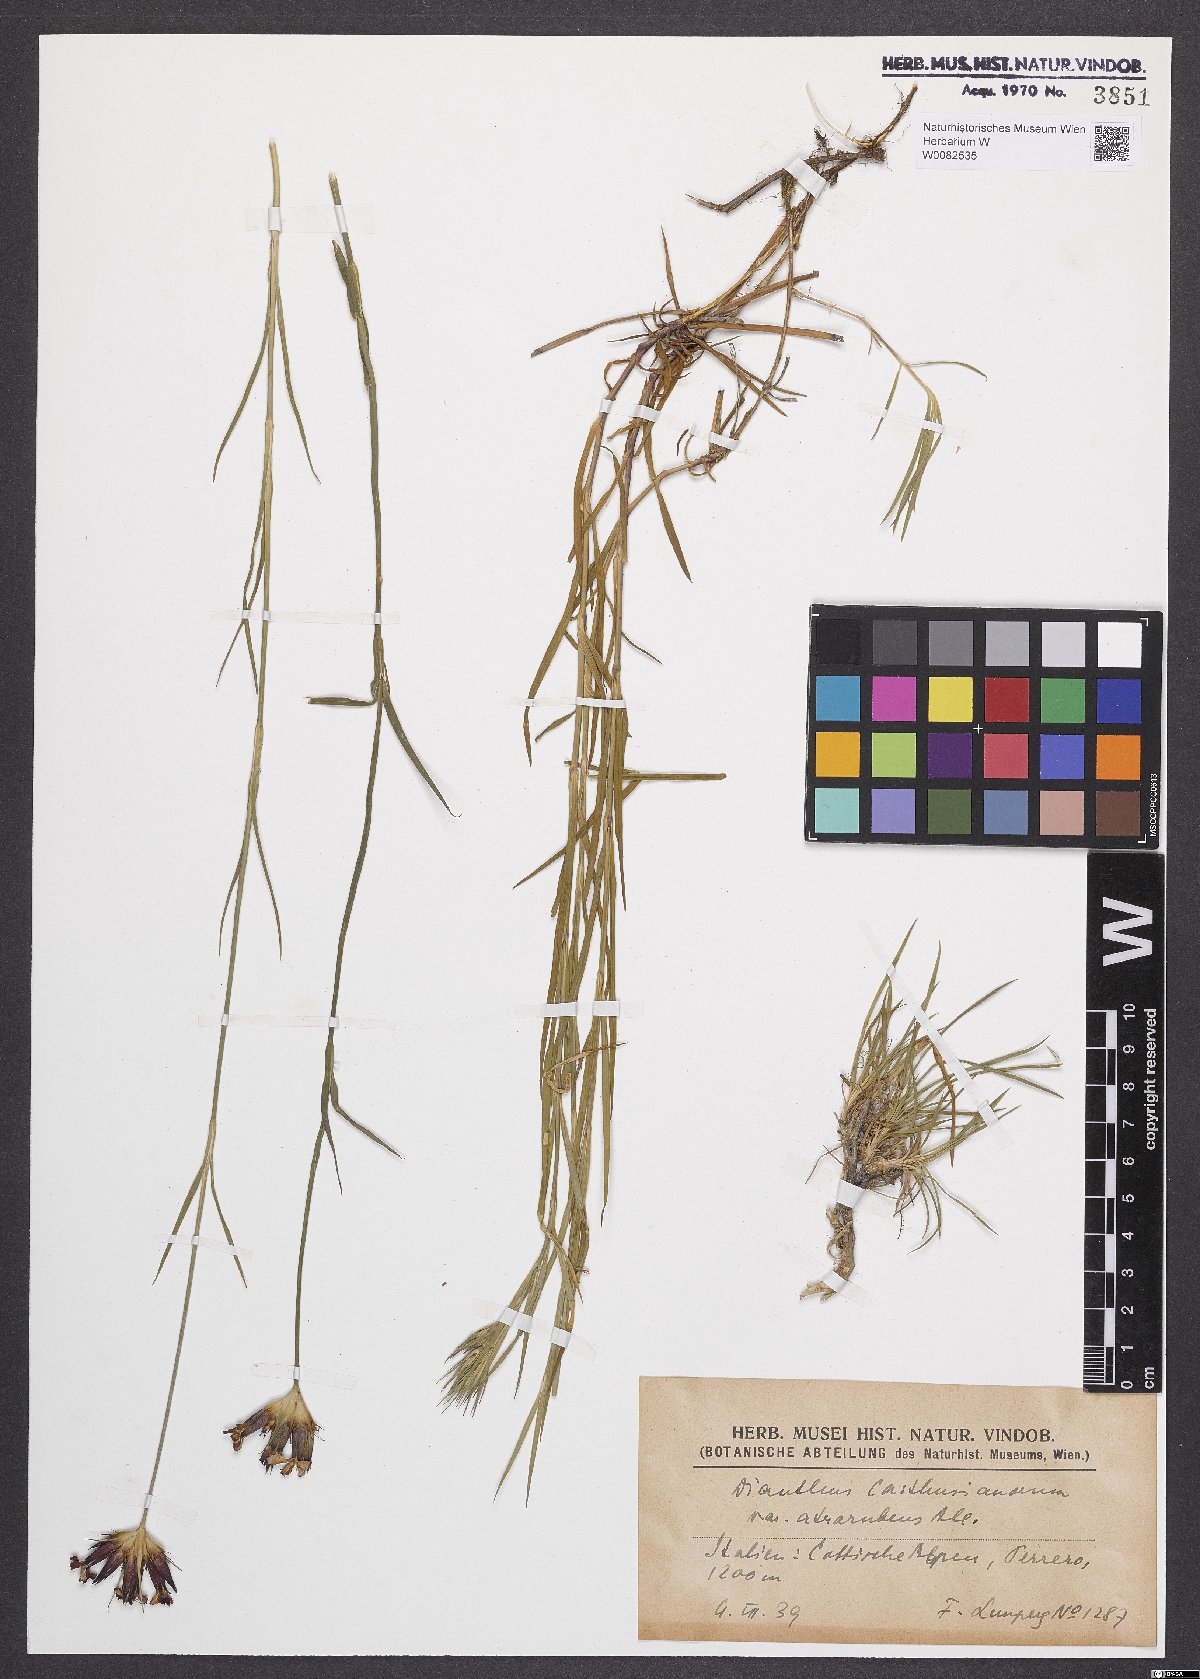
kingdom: Plantae
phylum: Tracheophyta
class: Magnoliopsida
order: Caryophyllales
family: Caryophyllaceae
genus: Dianthus
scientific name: Dianthus carthusianorum
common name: Carthusian pink
